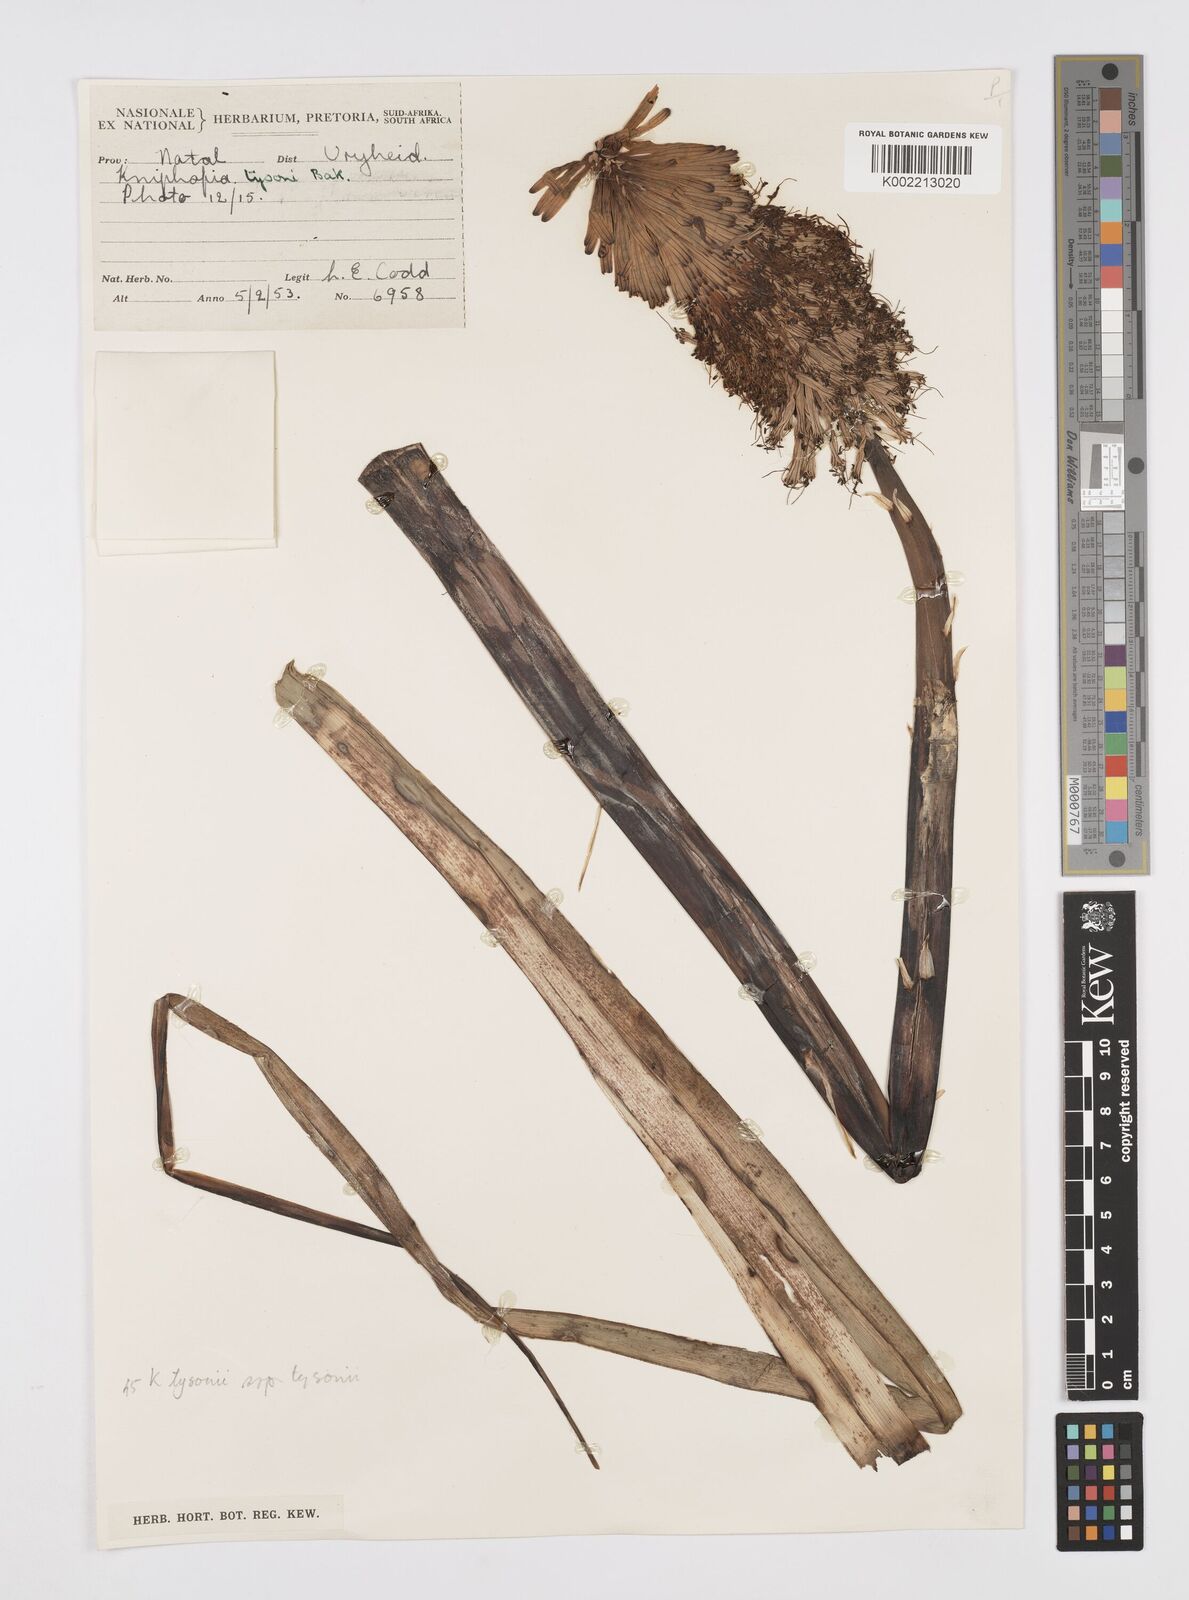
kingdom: Plantae
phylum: Tracheophyta
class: Liliopsida
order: Asparagales
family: Asphodelaceae
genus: Kniphofia
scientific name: Kniphofia tysonii
